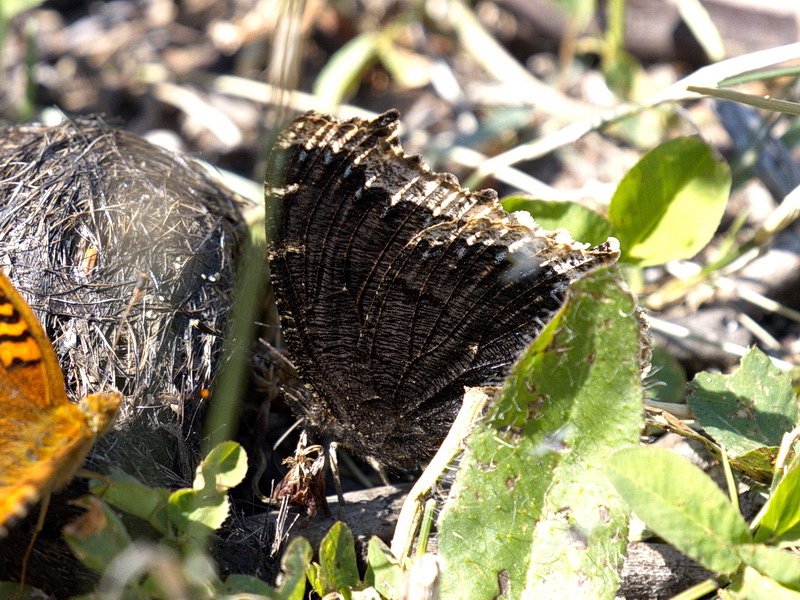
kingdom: Animalia
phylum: Arthropoda
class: Insecta
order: Lepidoptera
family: Nymphalidae
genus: Nymphalis
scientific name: Nymphalis antiopa
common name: Mourning Cloak
